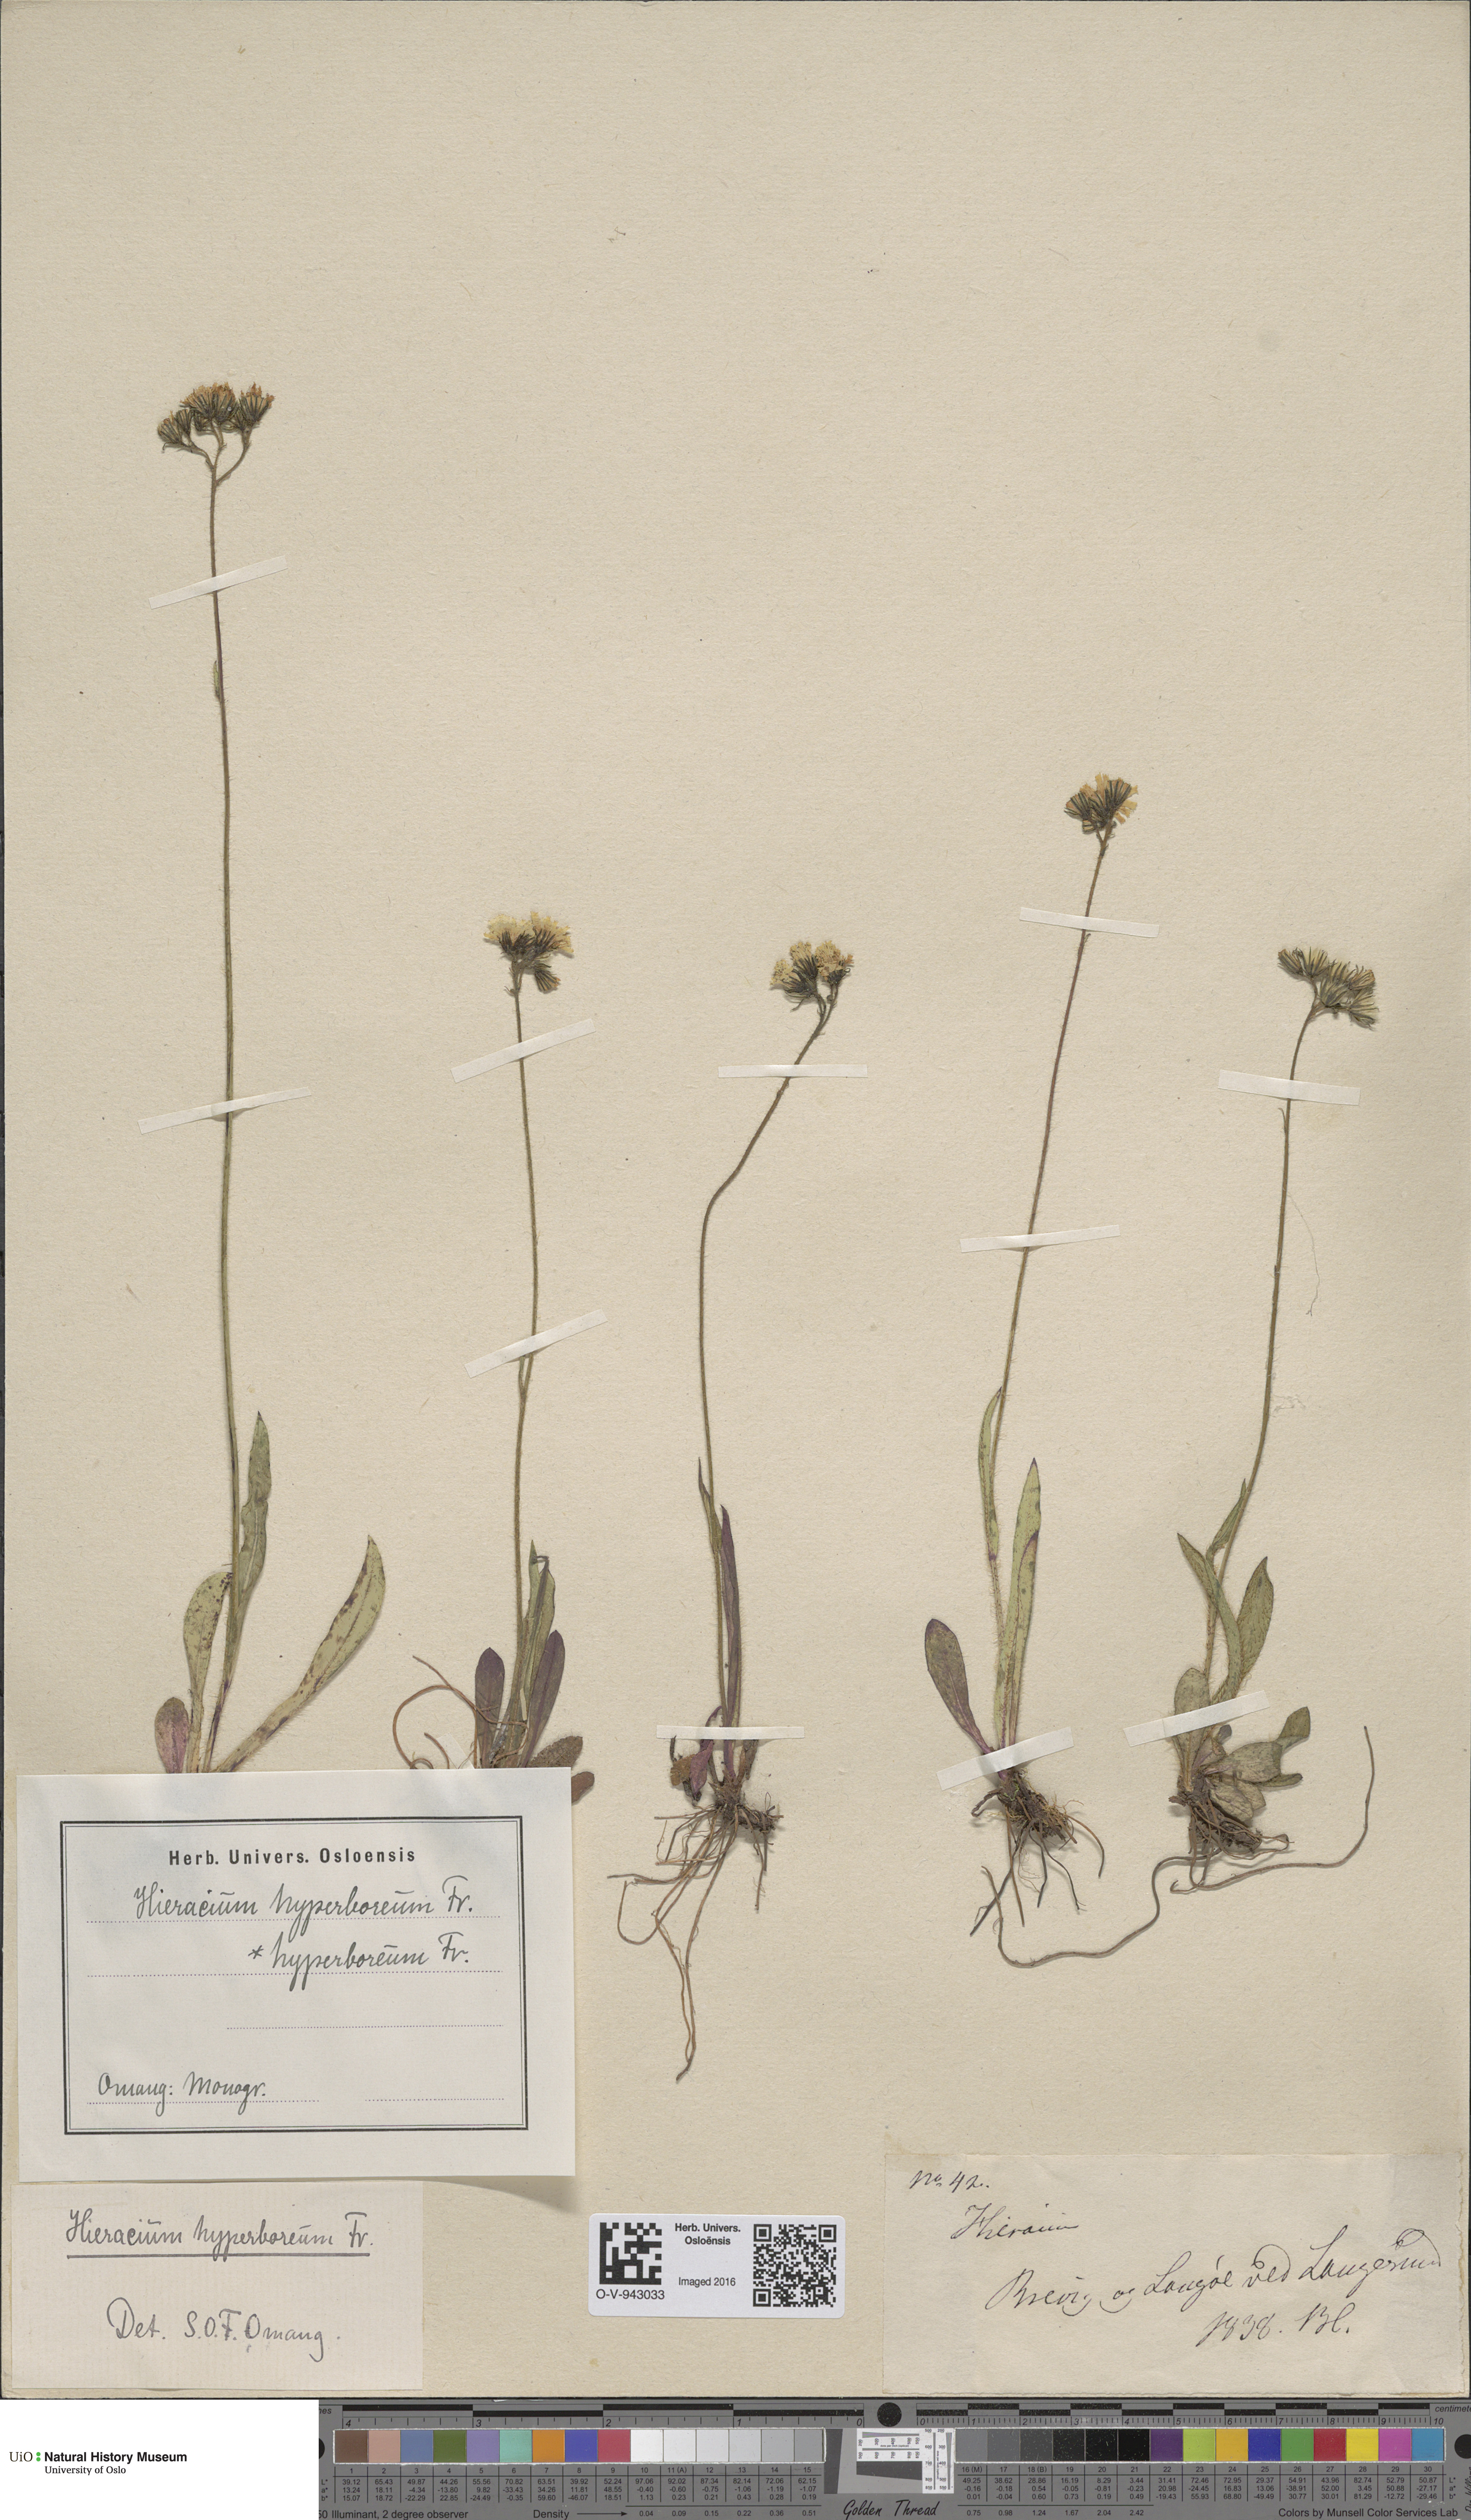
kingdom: Plantae
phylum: Tracheophyta
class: Magnoliopsida
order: Asterales
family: Asteraceae
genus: Pilosella
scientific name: Pilosella hyperborea
